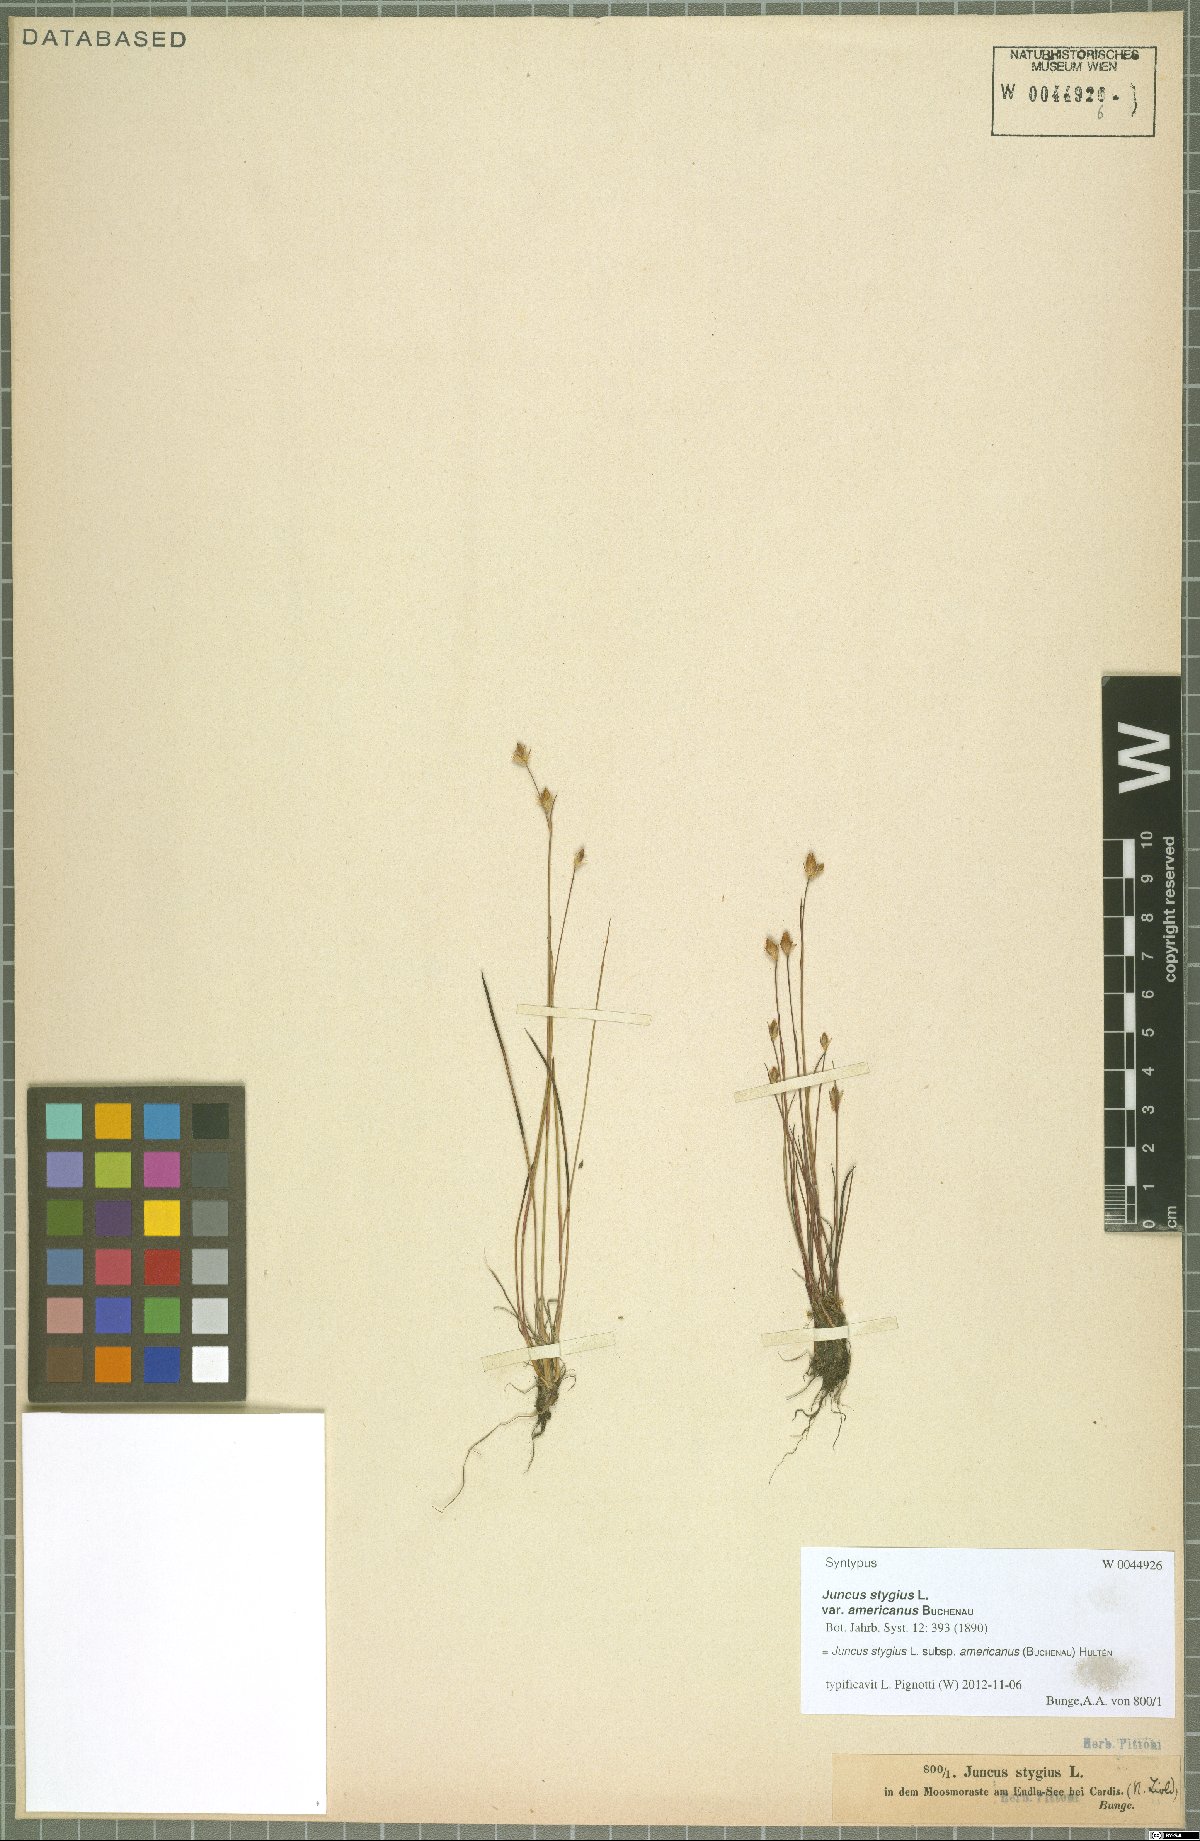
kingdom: Plantae
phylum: Tracheophyta
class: Liliopsida
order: Poales
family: Juncaceae
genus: Juncus
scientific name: Juncus stygius
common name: Bog rush
